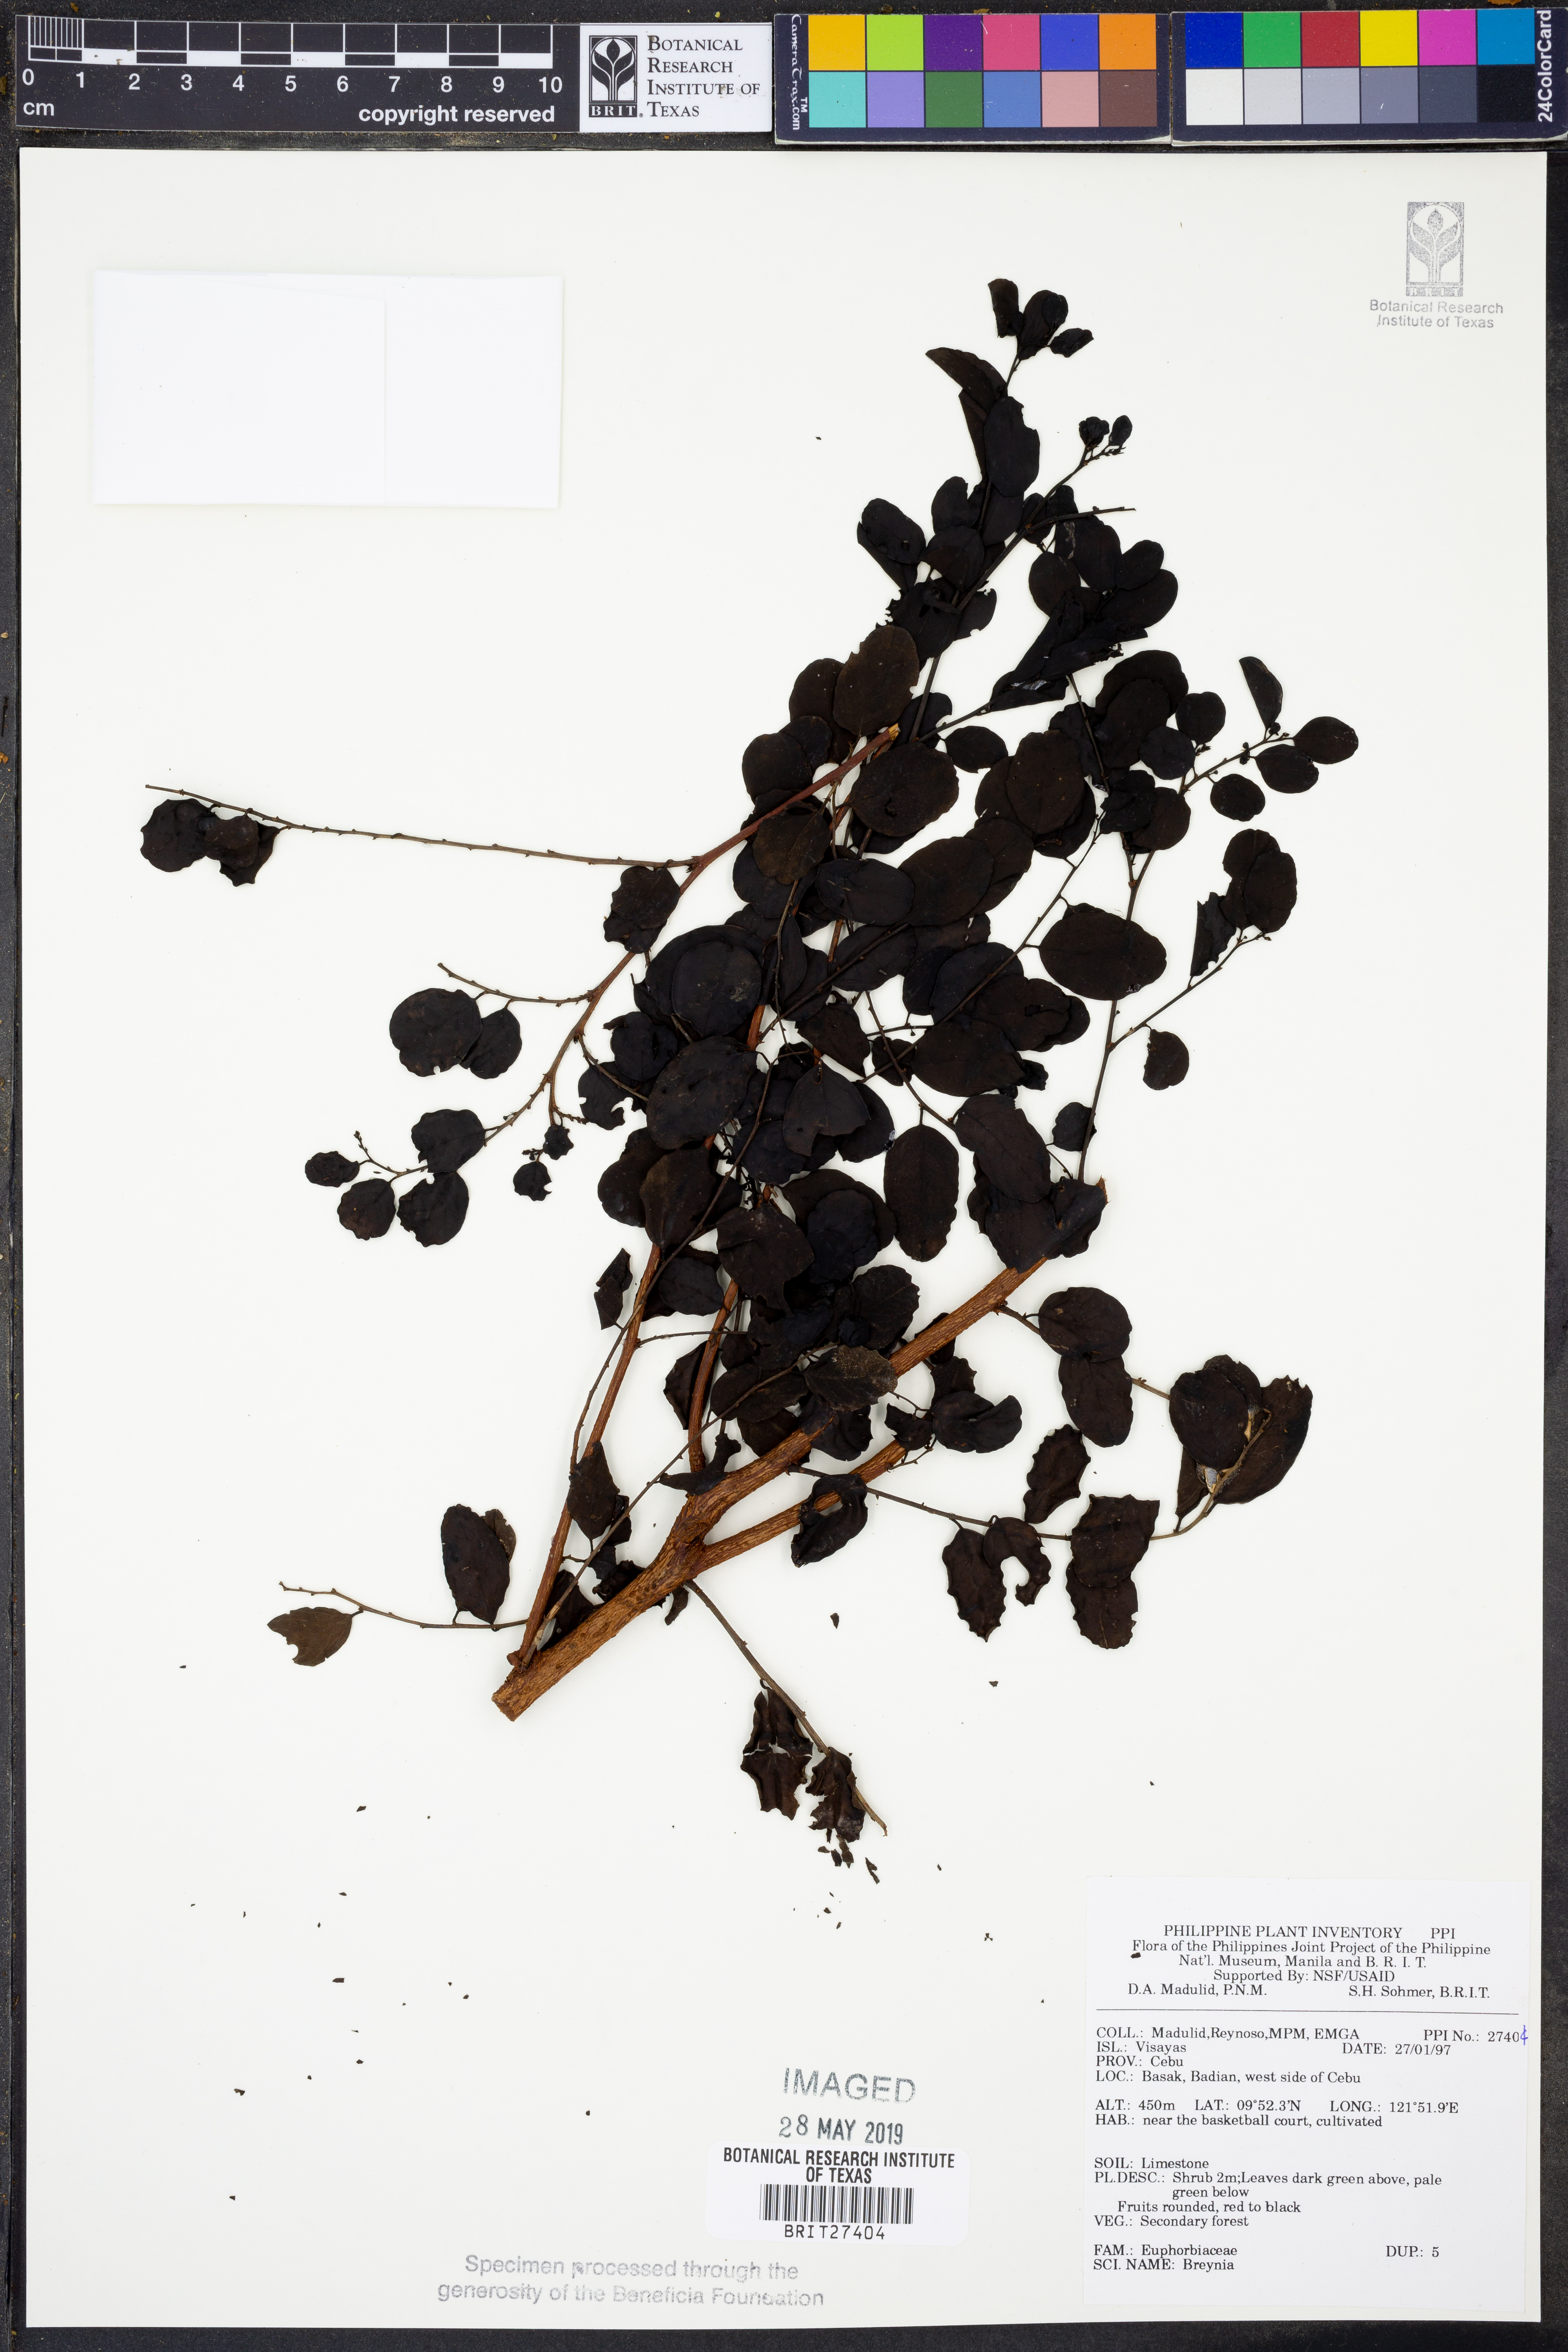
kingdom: Plantae
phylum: Tracheophyta
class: Magnoliopsida
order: Malpighiales
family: Phyllanthaceae
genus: Breynia
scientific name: Breynia
